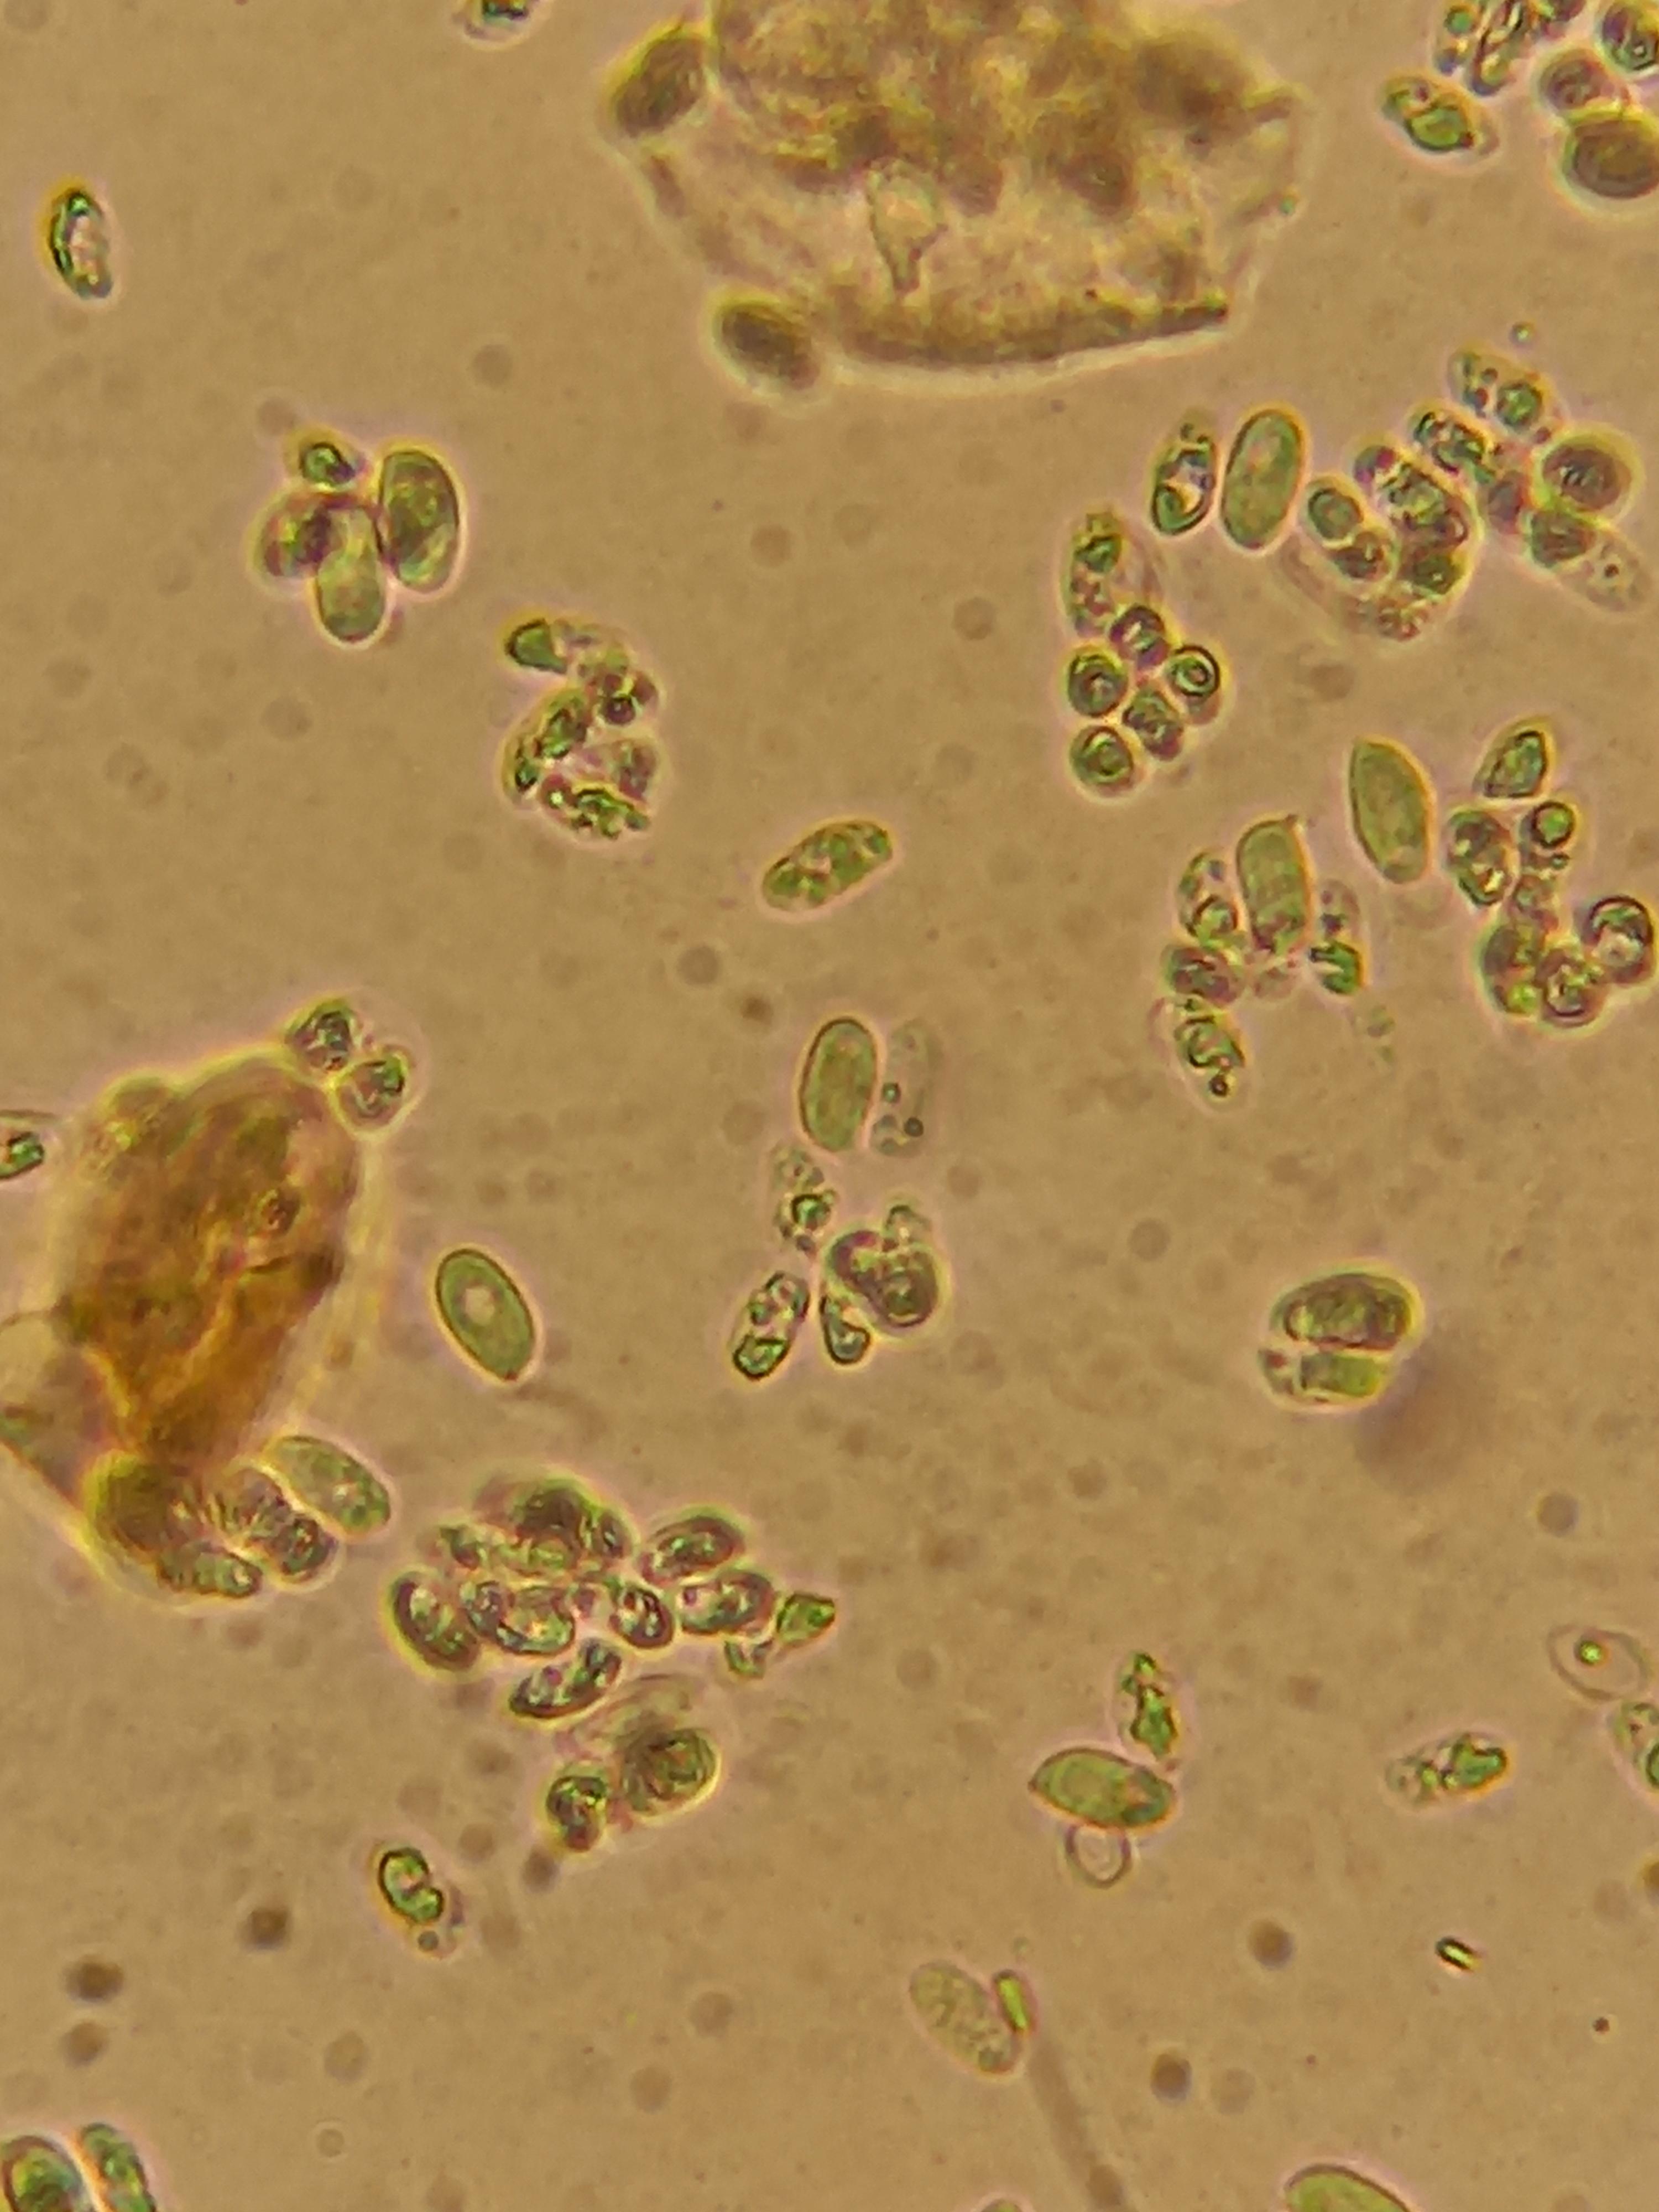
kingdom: Fungi
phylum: Basidiomycota
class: Agaricomycetes
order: Agaricales
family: Tricholomataceae
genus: Clitocybe
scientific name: Clitocybe nebularis
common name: tåge-tragthat
